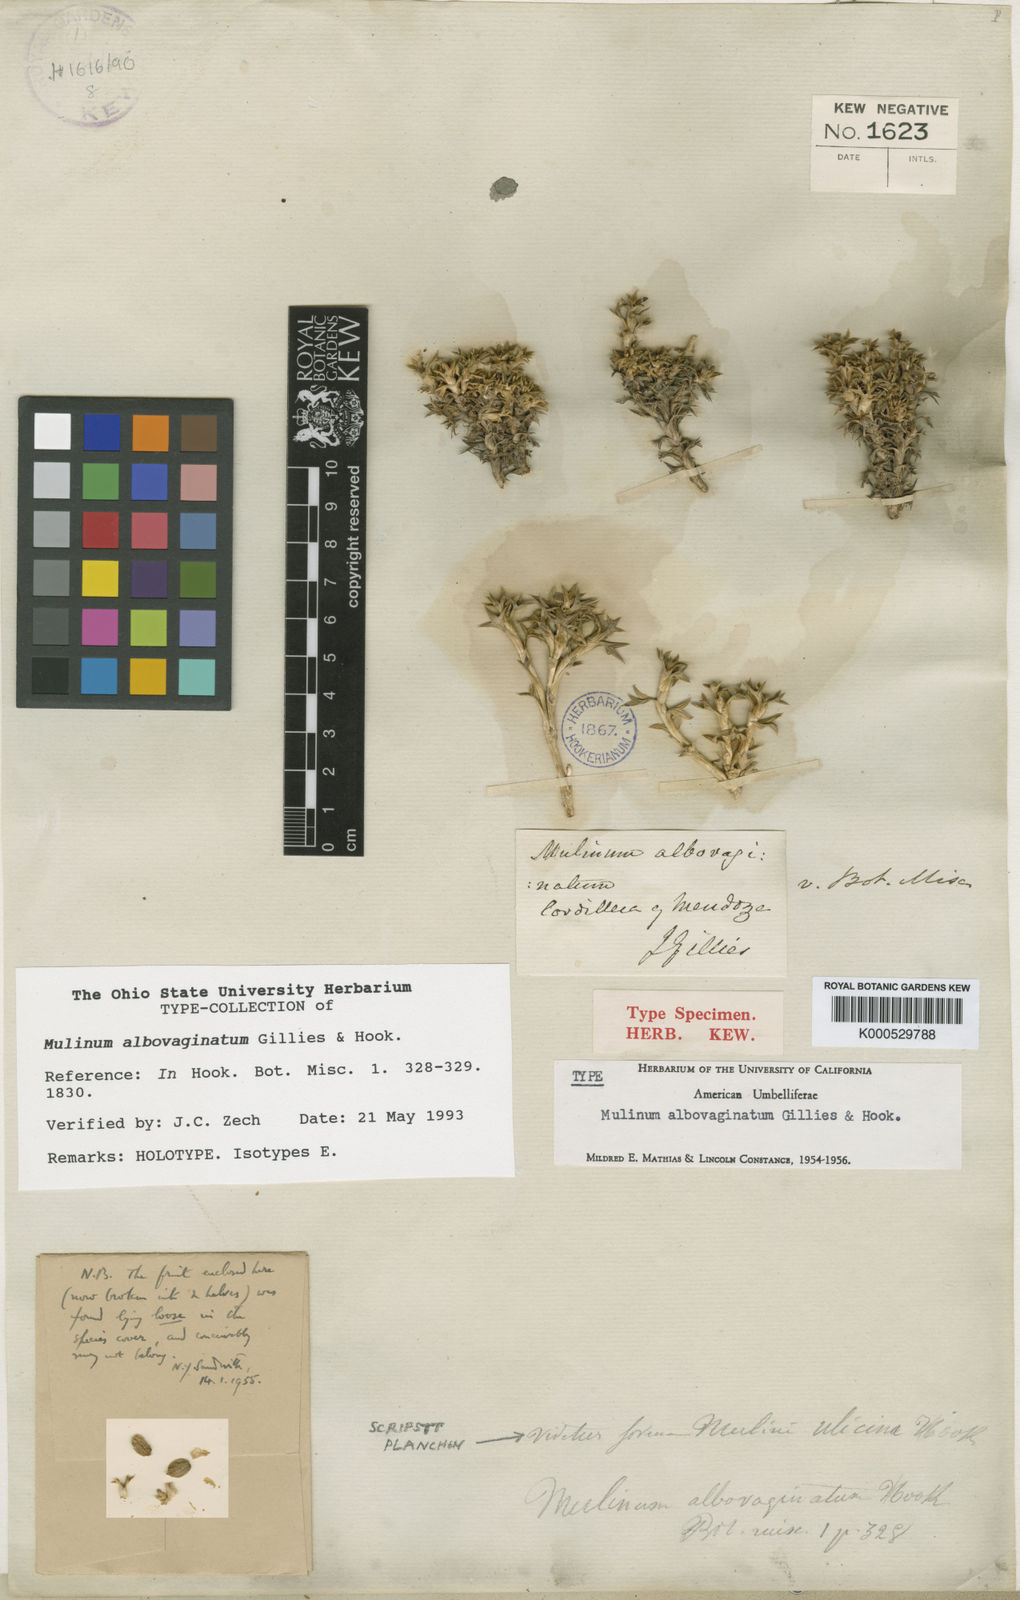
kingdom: Plantae
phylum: Tracheophyta
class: Magnoliopsida
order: Apiales
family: Apiaceae
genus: Azorella
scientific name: Azorella albovaginata
